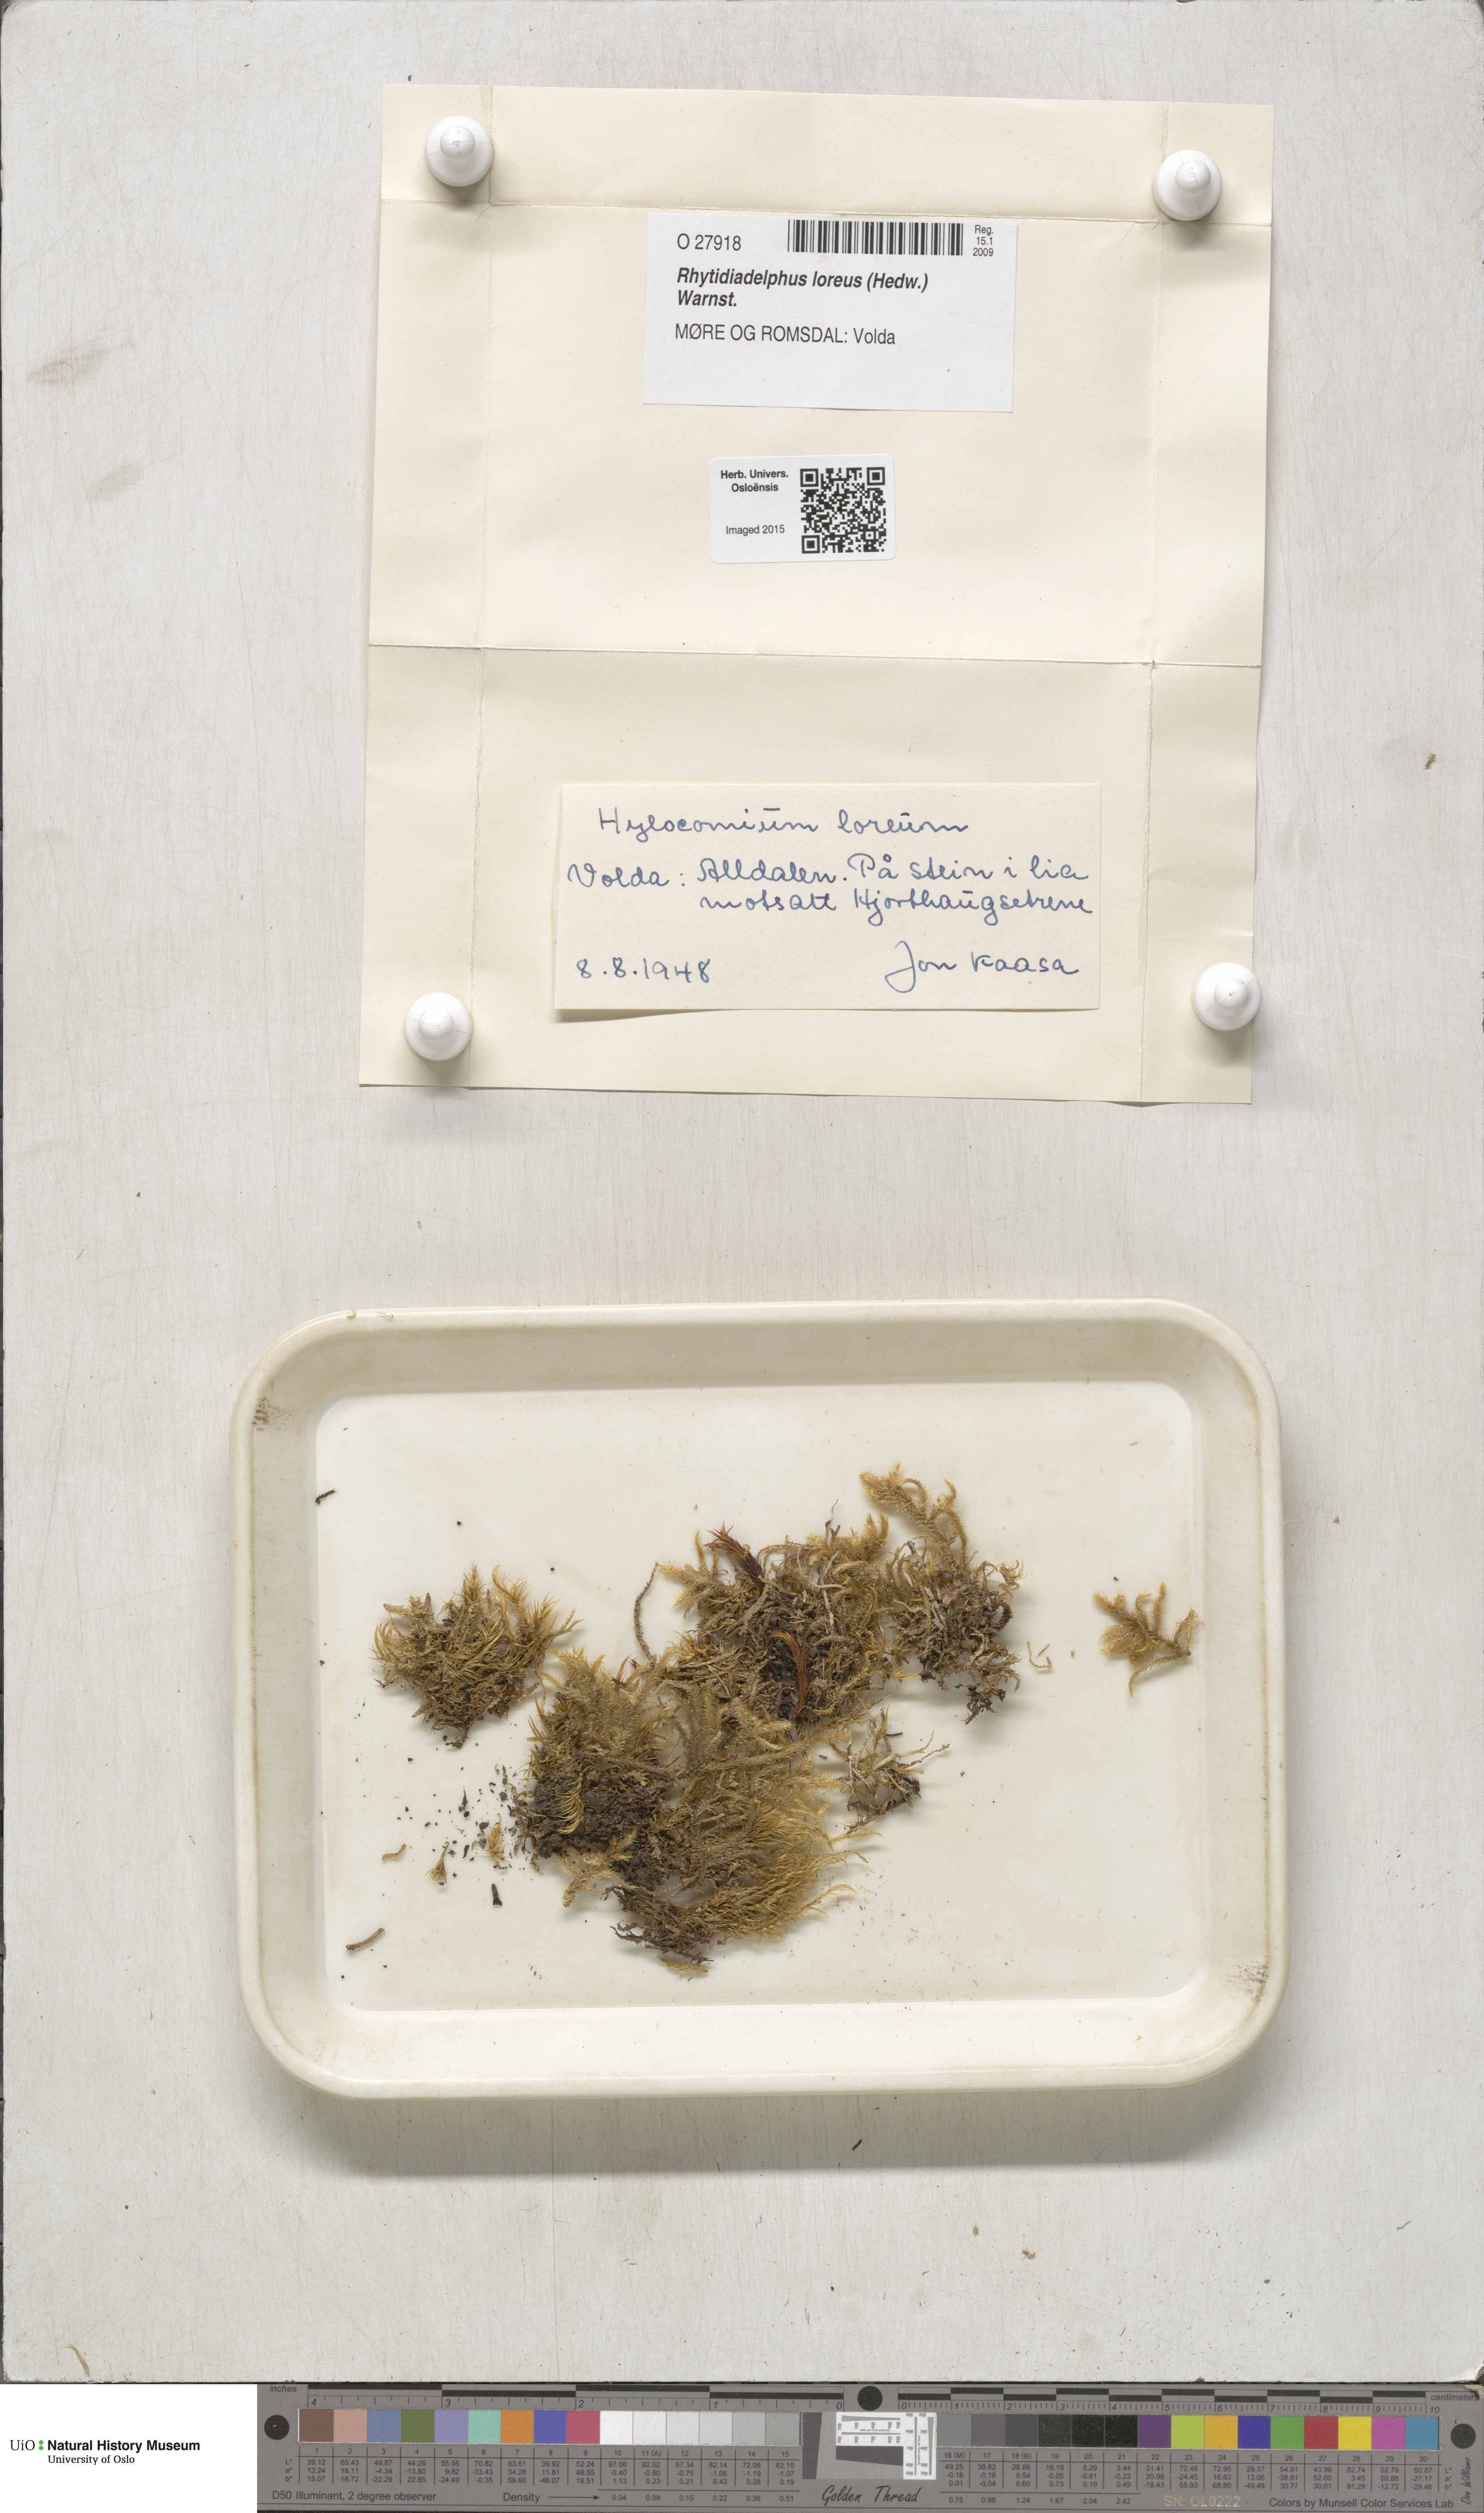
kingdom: Plantae
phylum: Bryophyta
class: Bryopsida
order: Hypnales
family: Hylocomiaceae
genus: Rhytidiadelphus
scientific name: Rhytidiadelphus loreus
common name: Lanky moss
